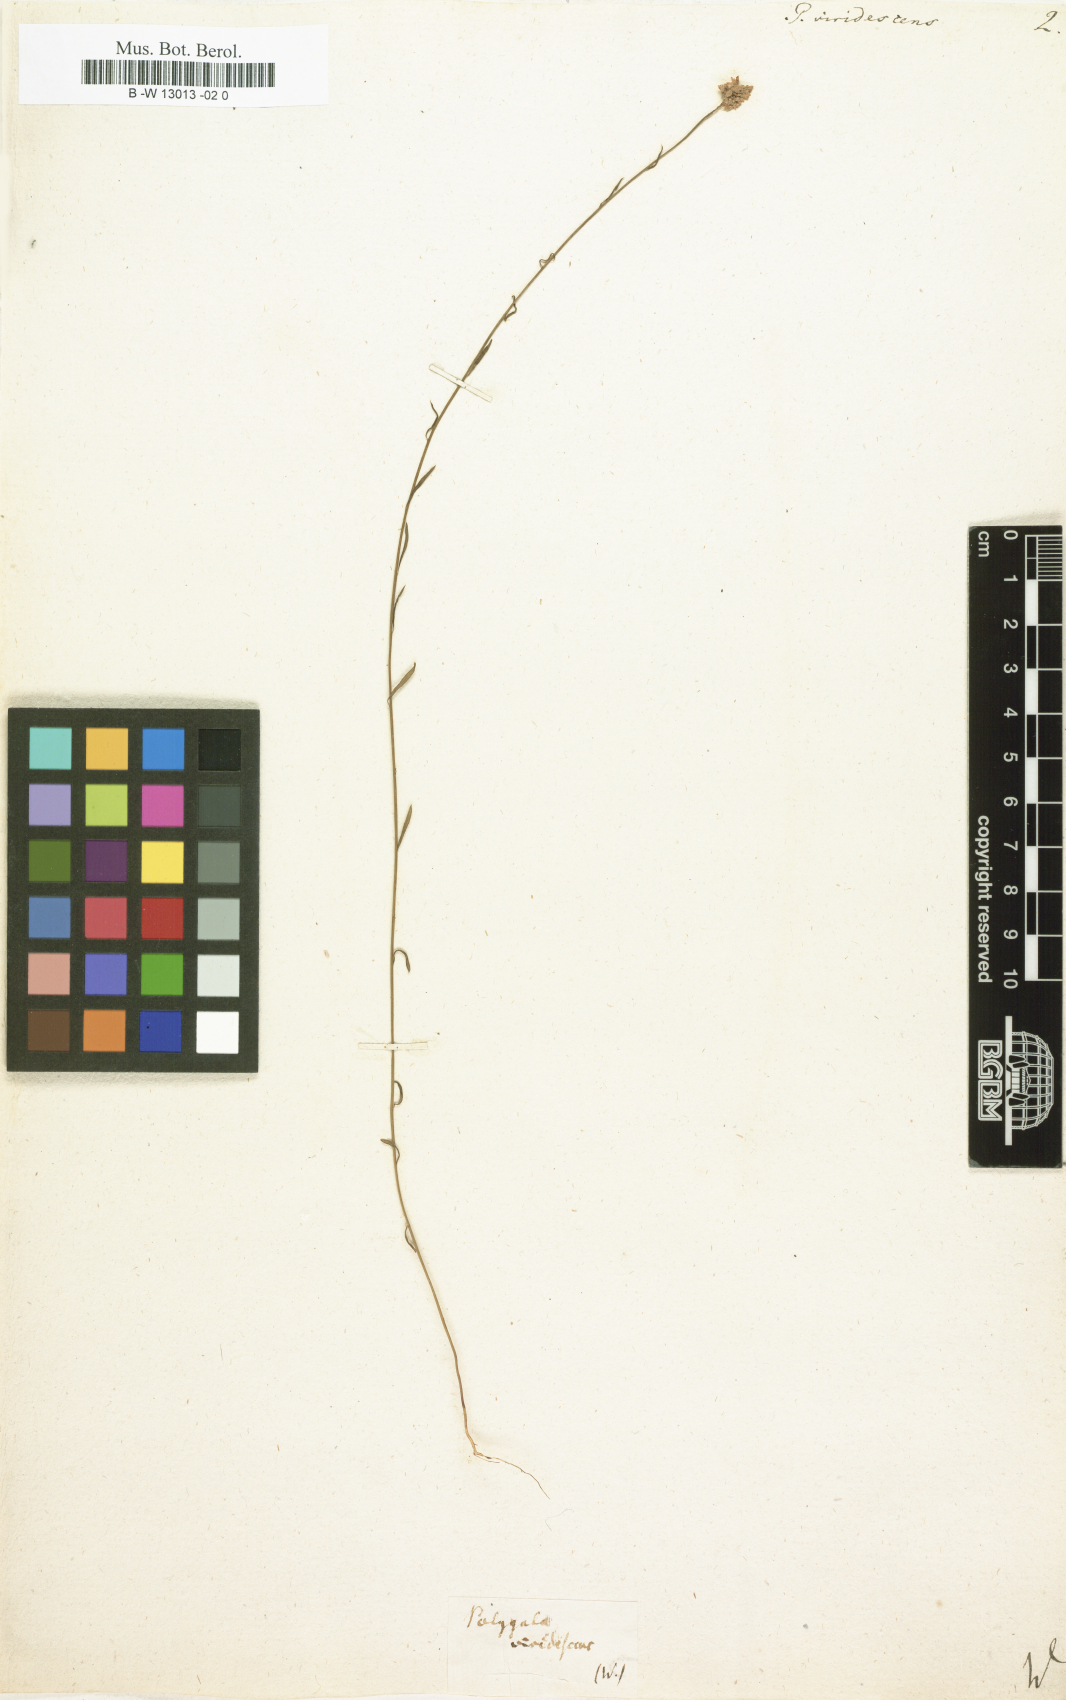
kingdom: Plantae
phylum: Tracheophyta
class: Magnoliopsida
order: Fabales
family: Polygalaceae
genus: Polygala
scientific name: Polygala
